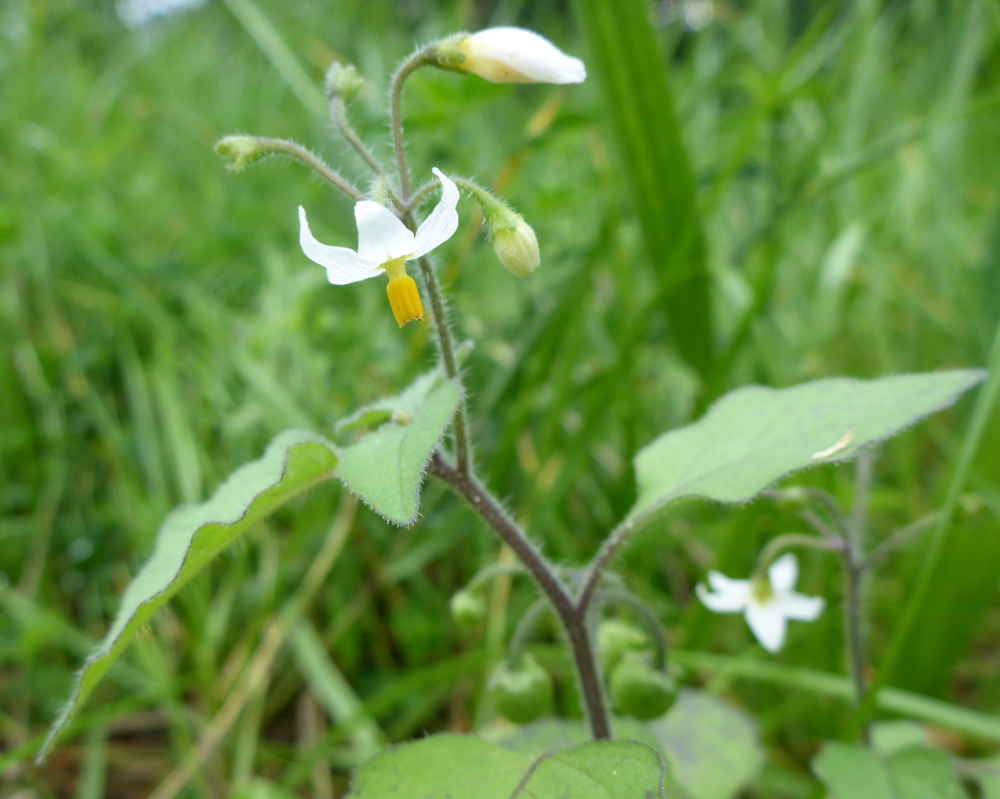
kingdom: Plantae
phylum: Tracheophyta
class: Magnoliopsida
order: Solanales
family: Solanaceae
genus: Solanum
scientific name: Solanum nigrum
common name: Black nightshade
